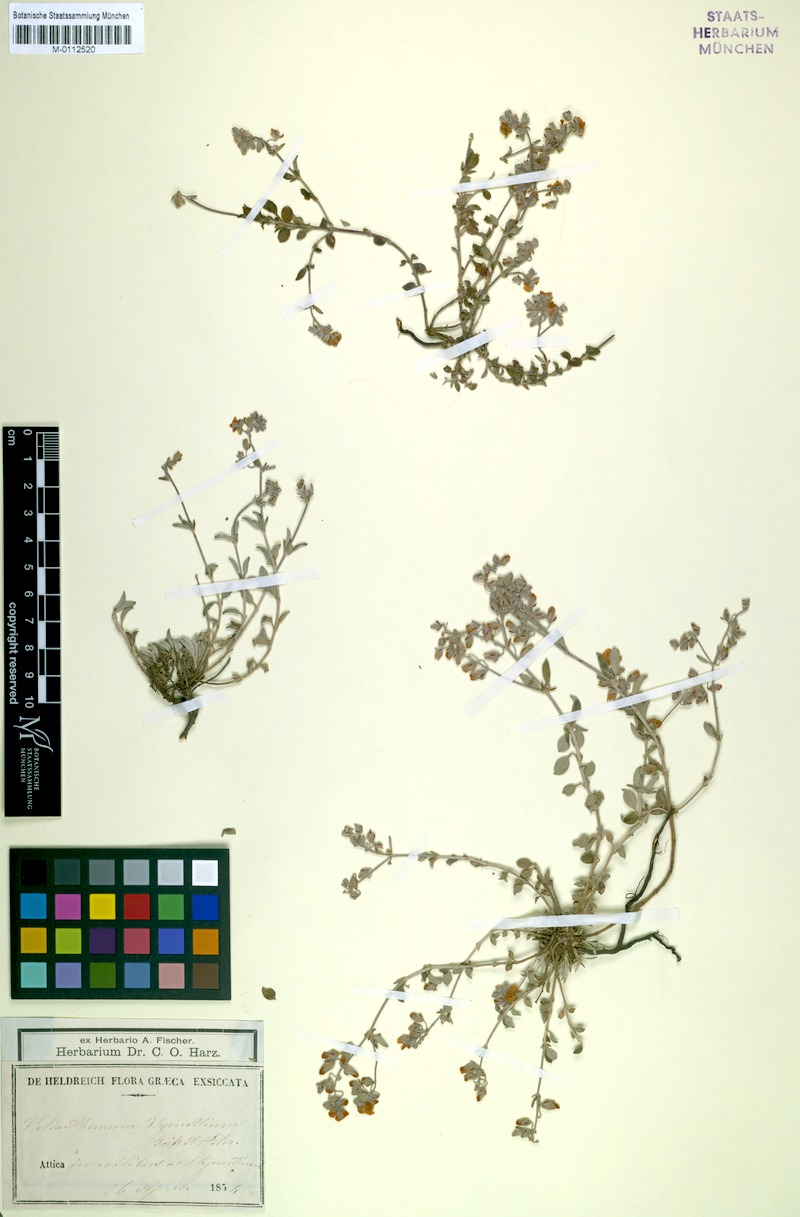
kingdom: Plantae
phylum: Tracheophyta
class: Magnoliopsida
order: Malvales
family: Cistaceae
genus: Helianthemum
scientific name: Helianthemum hymettium
